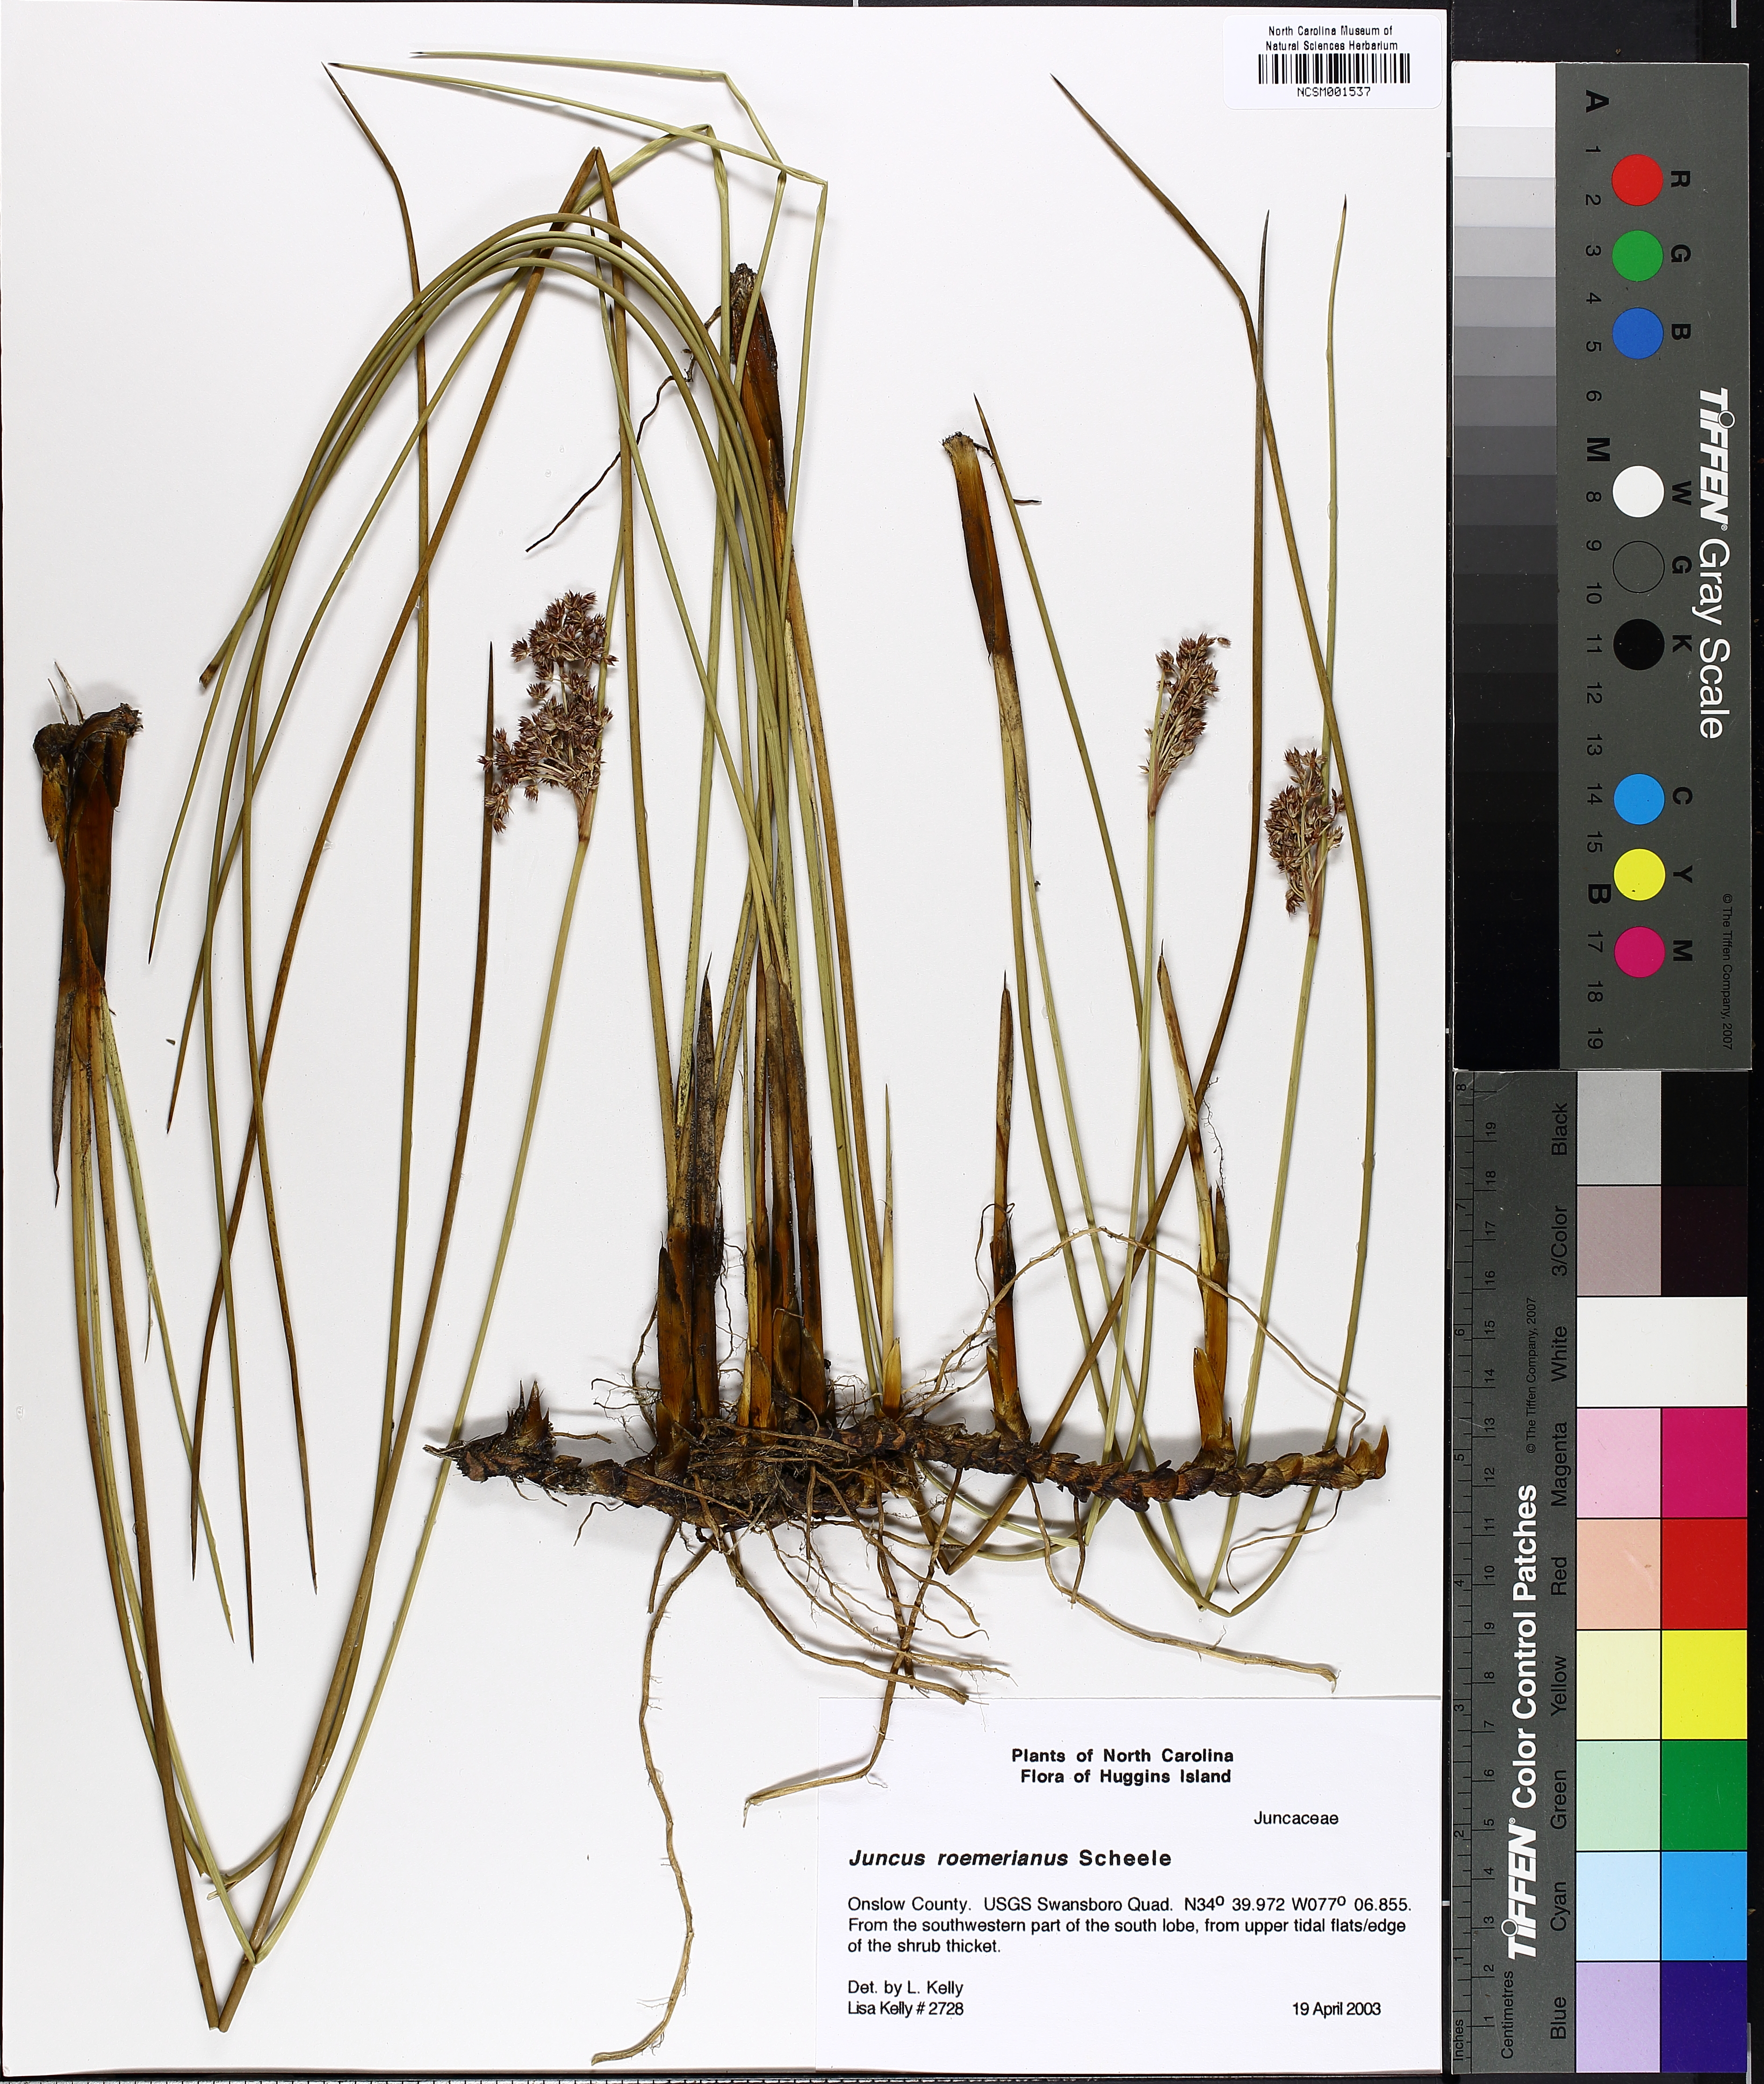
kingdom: Plantae
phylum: Tracheophyta
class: Liliopsida
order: Poales
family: Juncaceae
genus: Juncus
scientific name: Juncus roemerianus
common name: Roemer's rush
